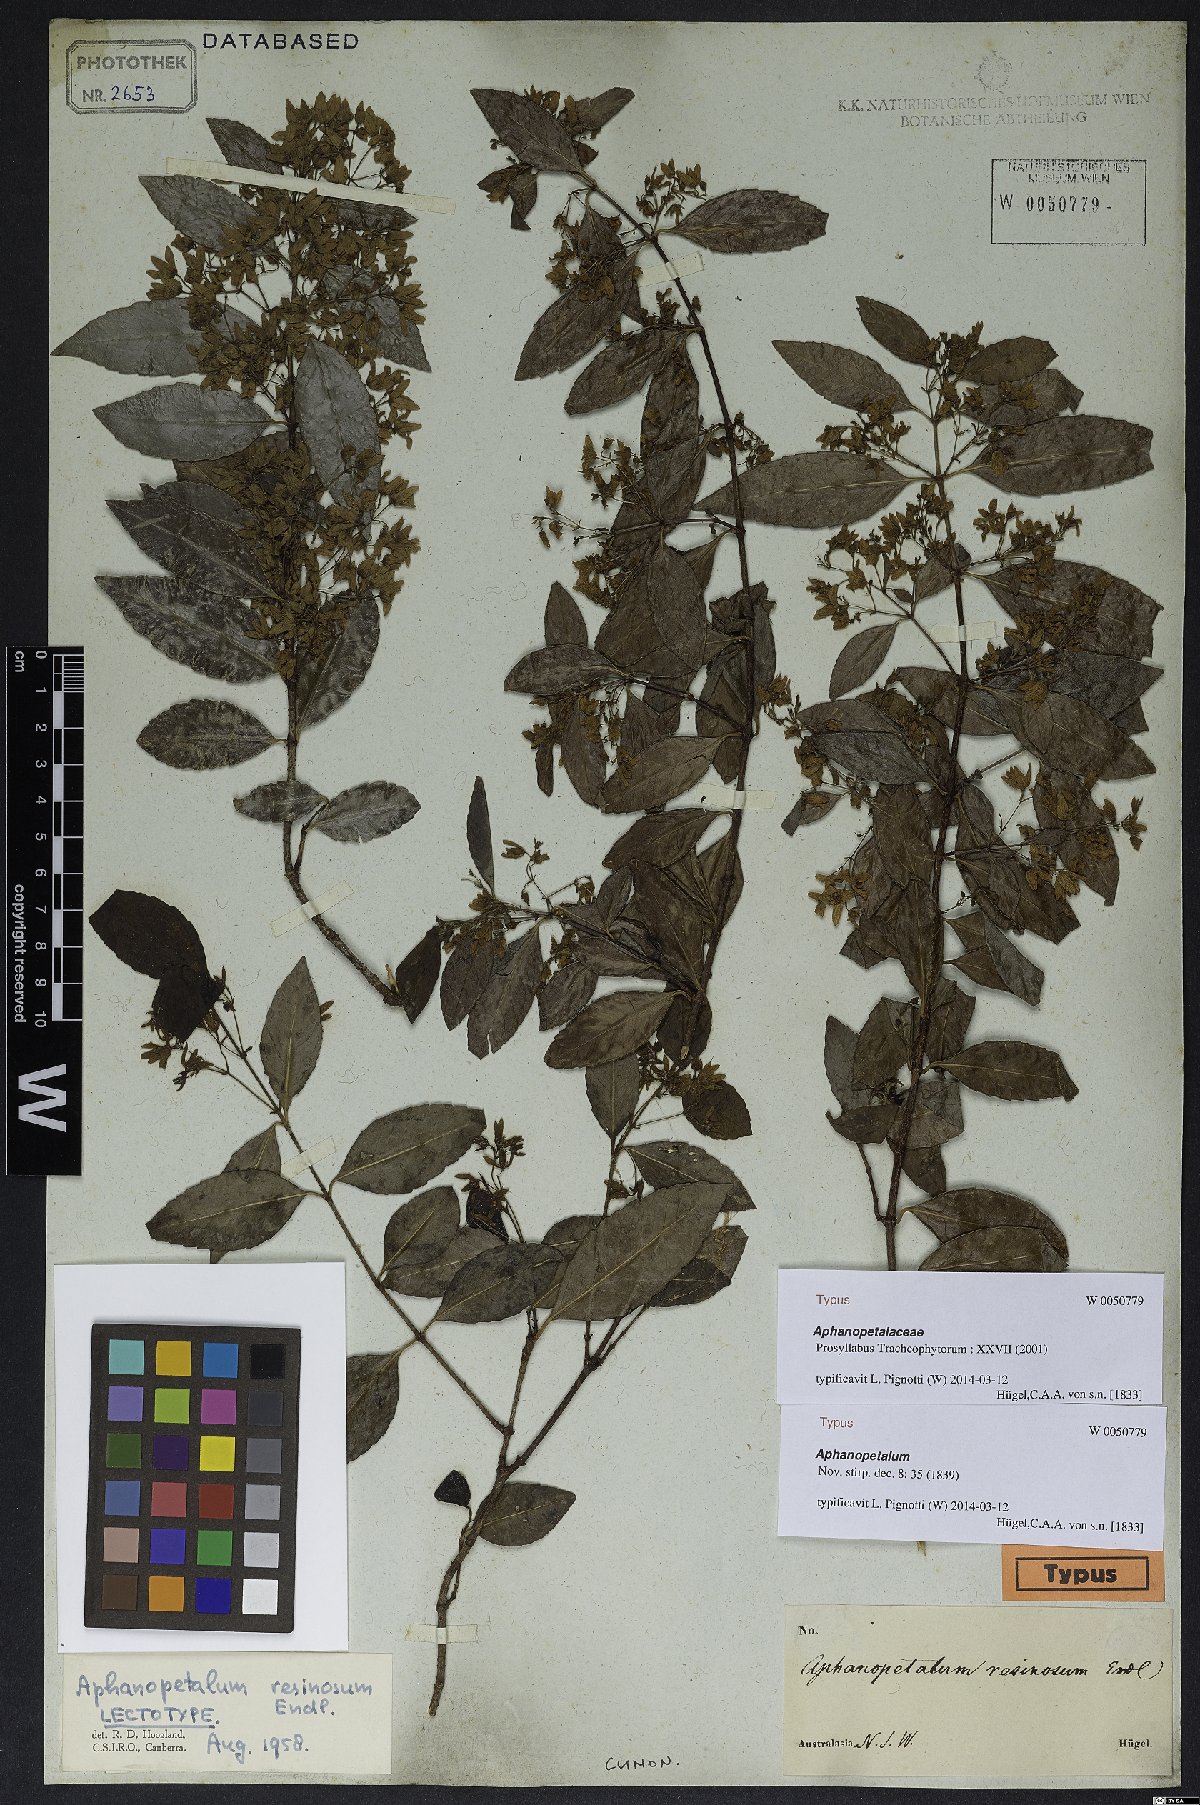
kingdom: Plantae
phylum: Tracheophyta
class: Magnoliopsida
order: Saxifragales
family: Aphanopetalaceae
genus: Aphanopetalum
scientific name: Aphanopetalum resinosum
